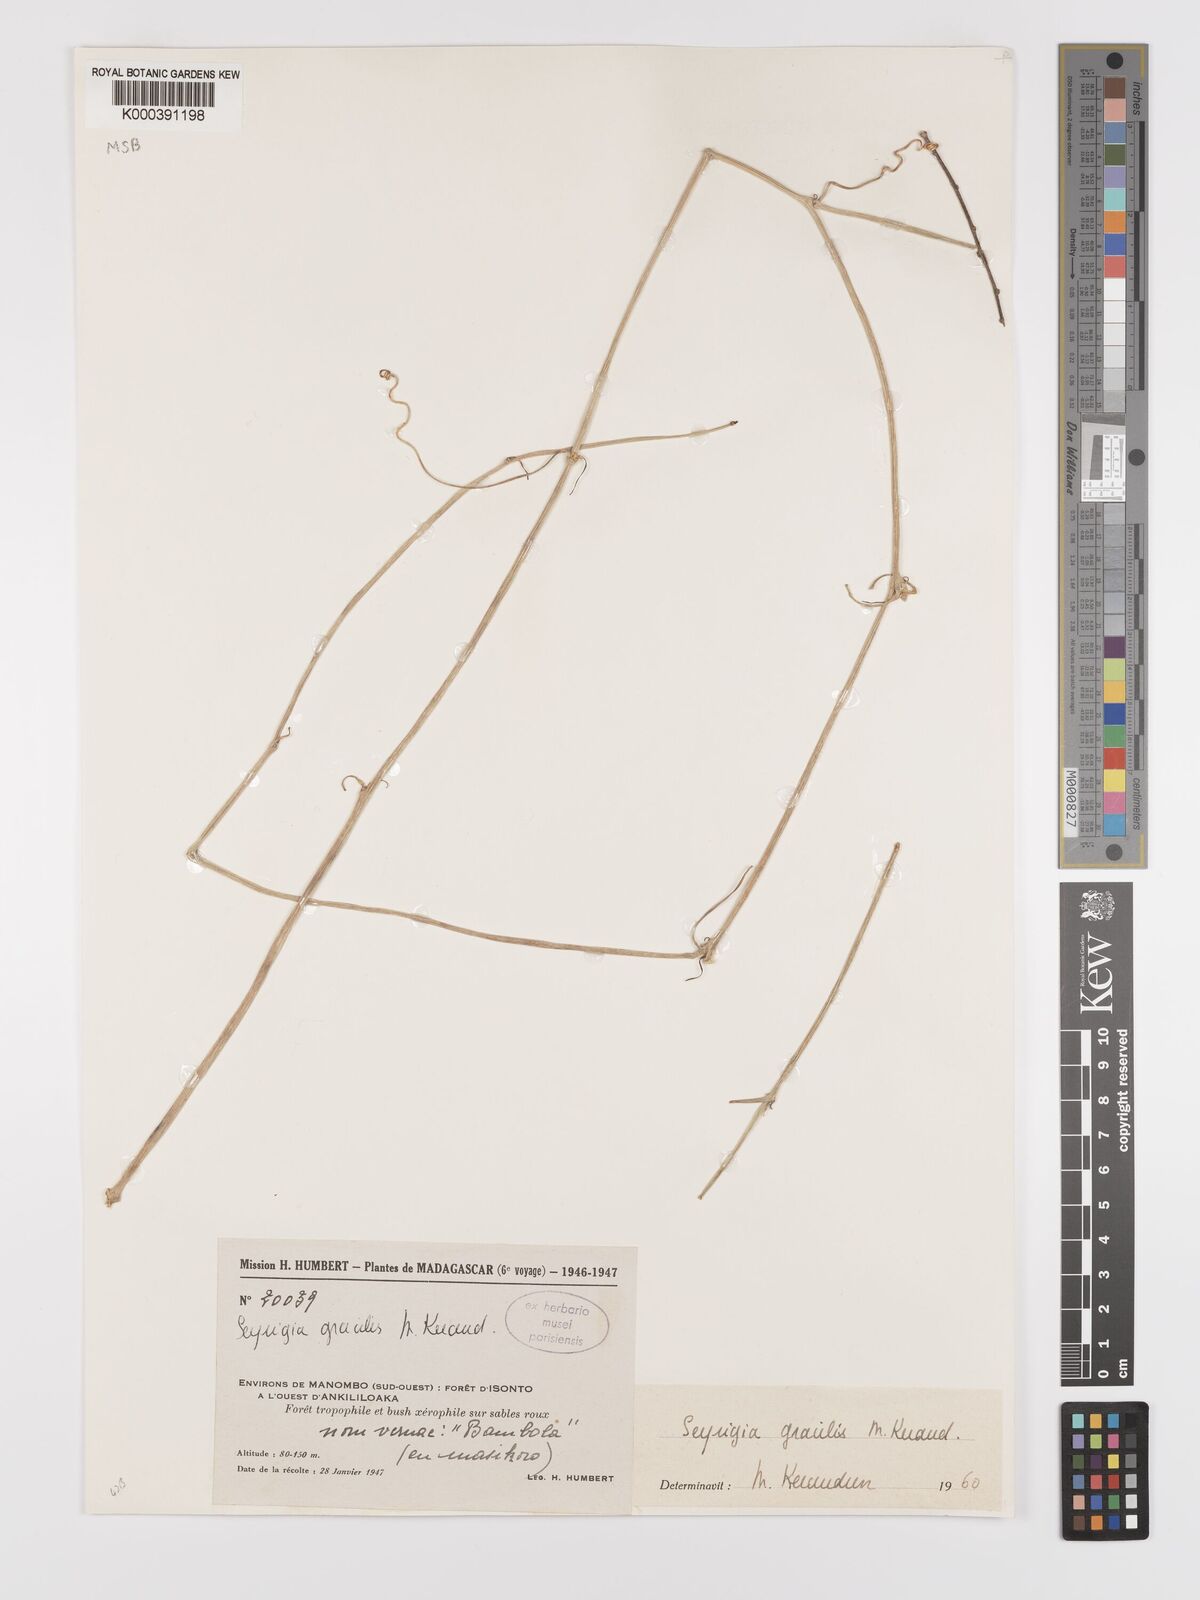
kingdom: Plantae
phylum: Tracheophyta
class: Magnoliopsida
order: Cucurbitales
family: Cucurbitaceae
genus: Seyrigia
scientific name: Seyrigia gracilis
